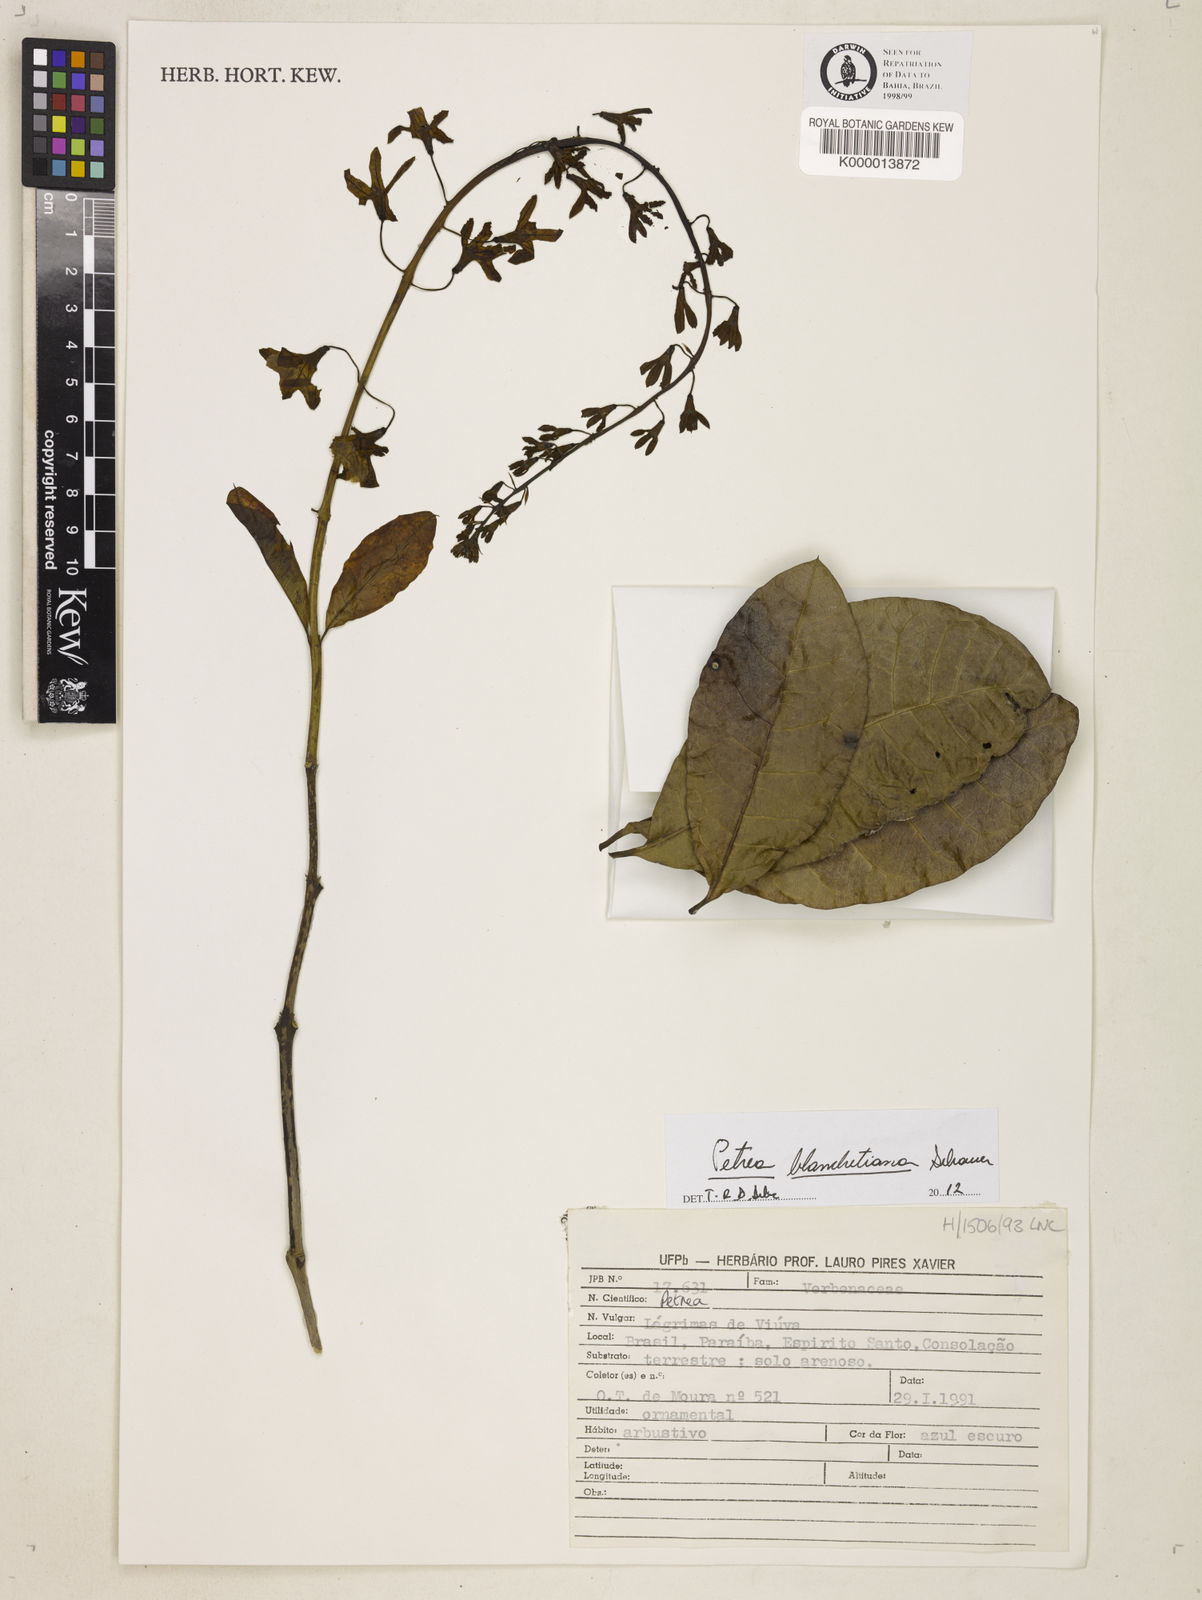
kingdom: Plantae
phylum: Tracheophyta
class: Magnoliopsida
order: Lamiales
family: Verbenaceae
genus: Petrea
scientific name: Petrea
